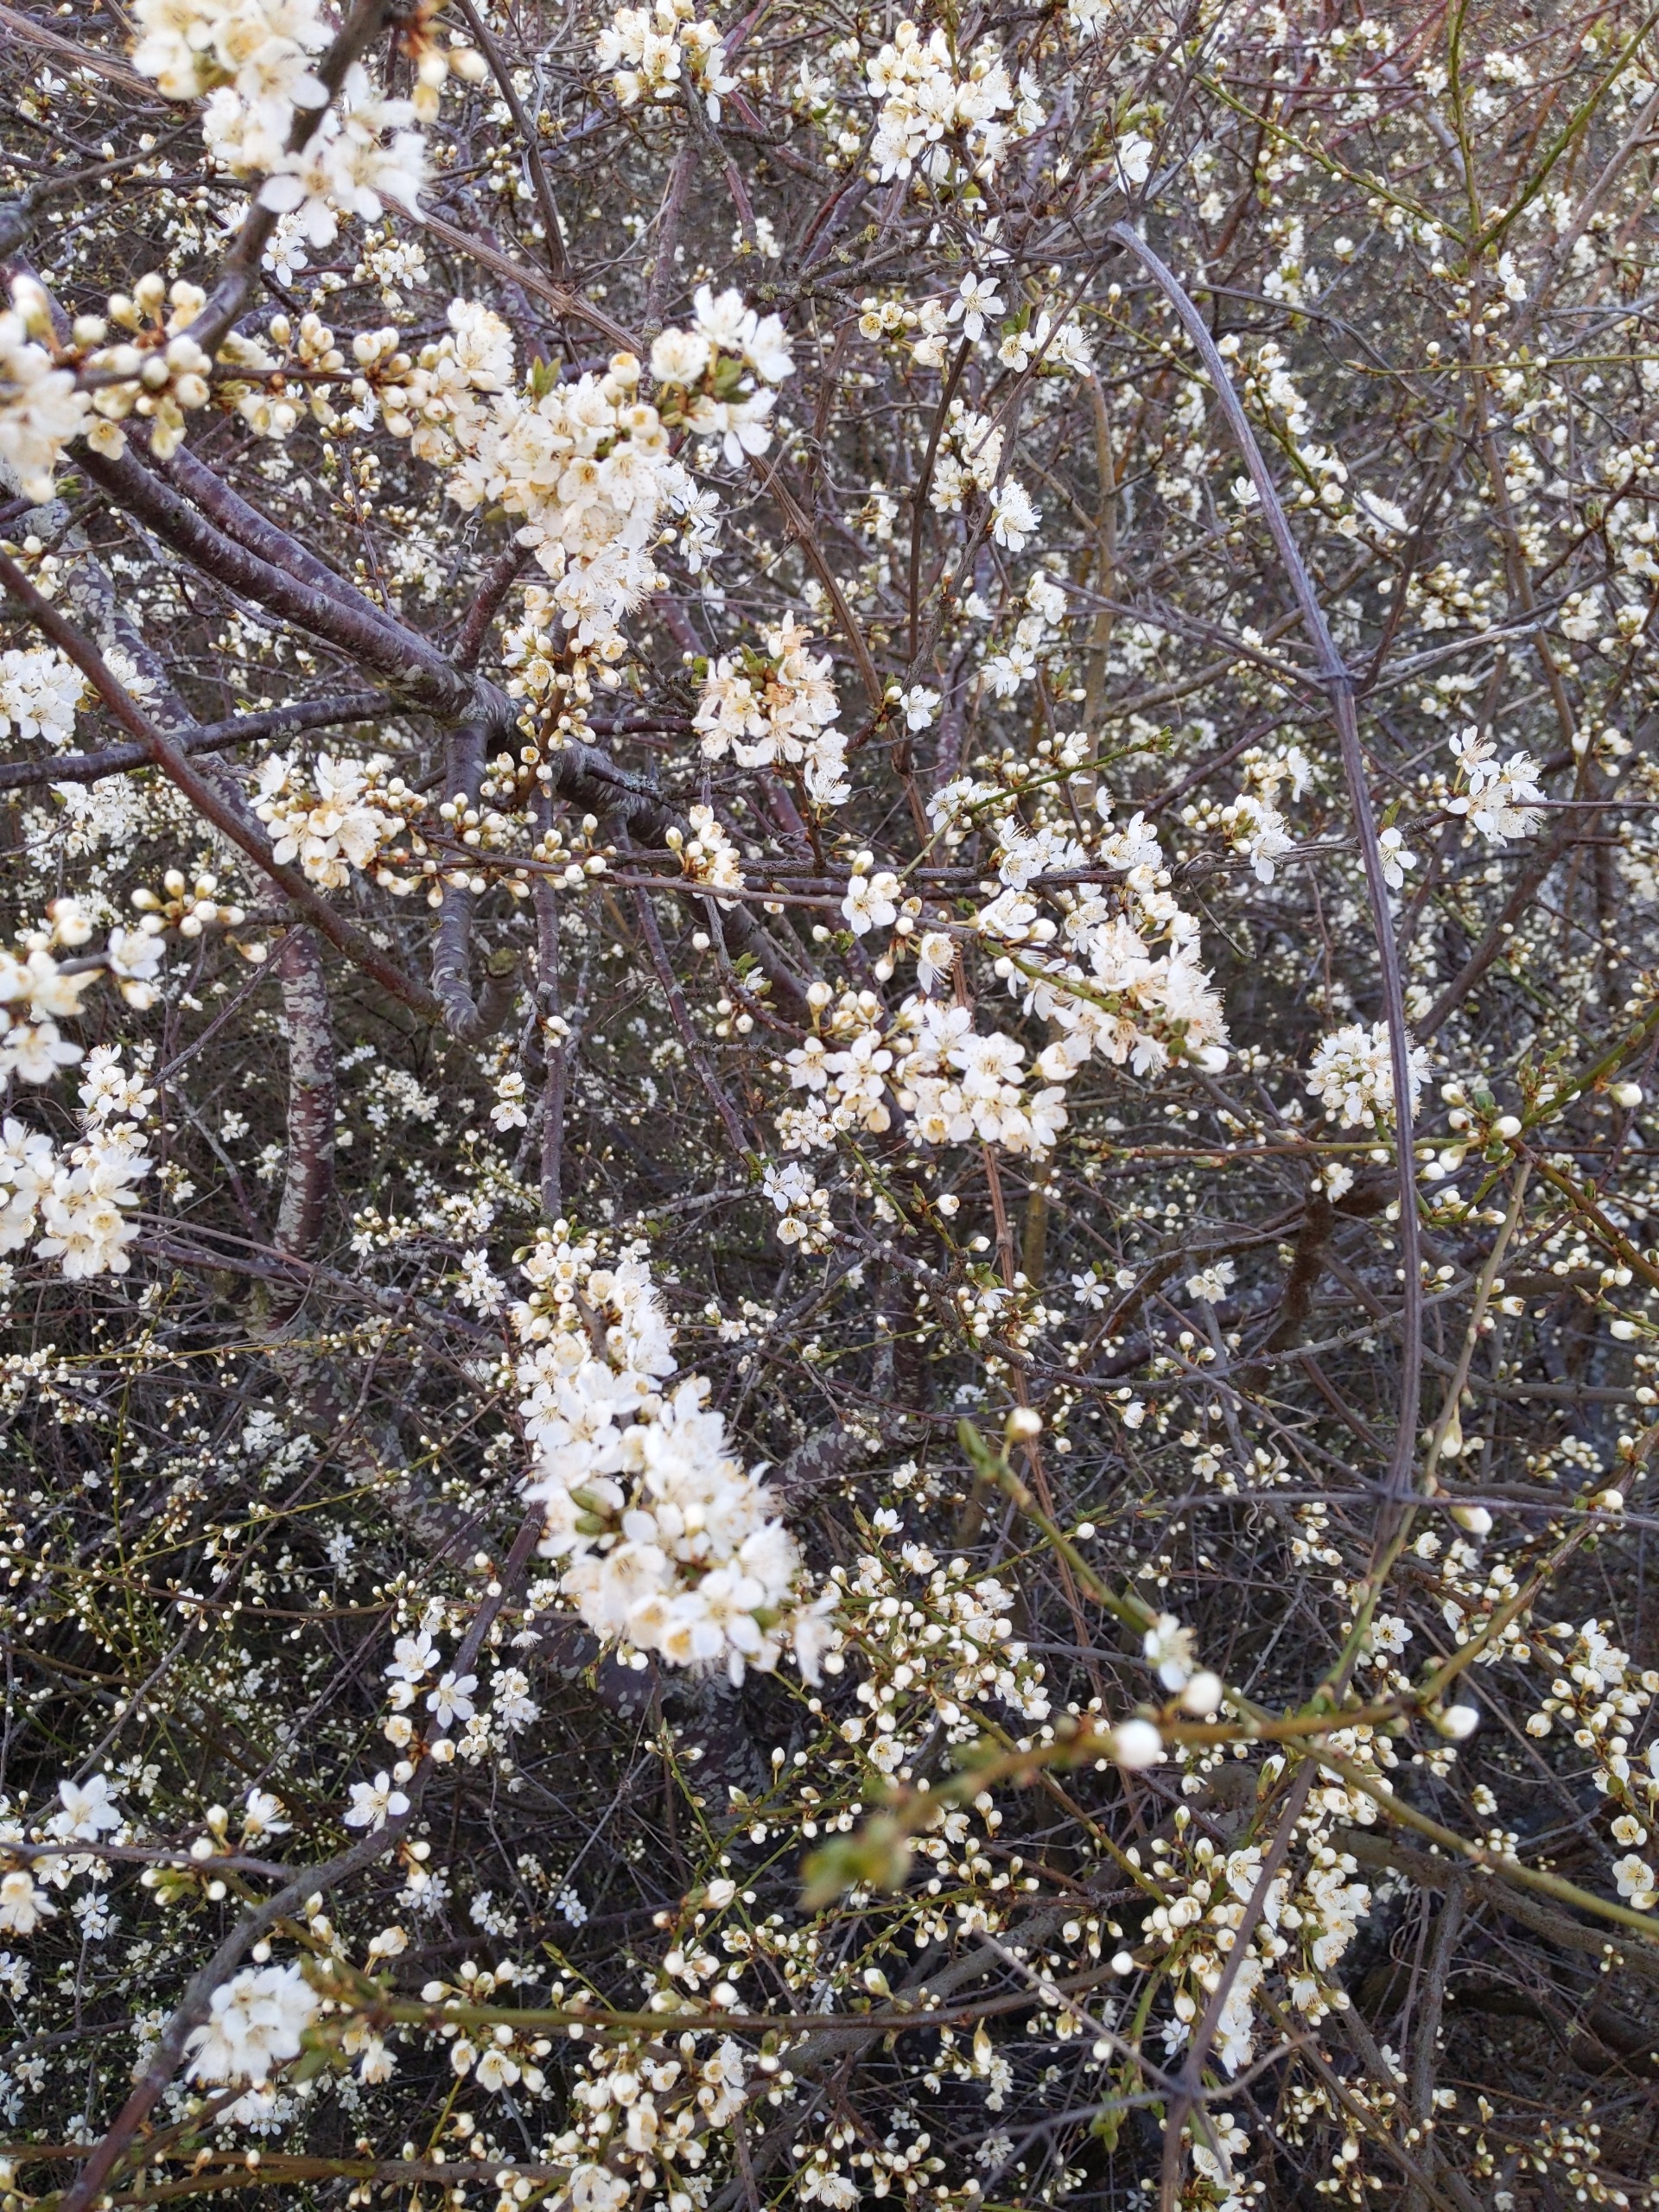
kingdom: Plantae
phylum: Tracheophyta
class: Magnoliopsida
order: Rosales
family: Rosaceae
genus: Prunus
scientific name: Prunus cerasifera
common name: Mirabel
